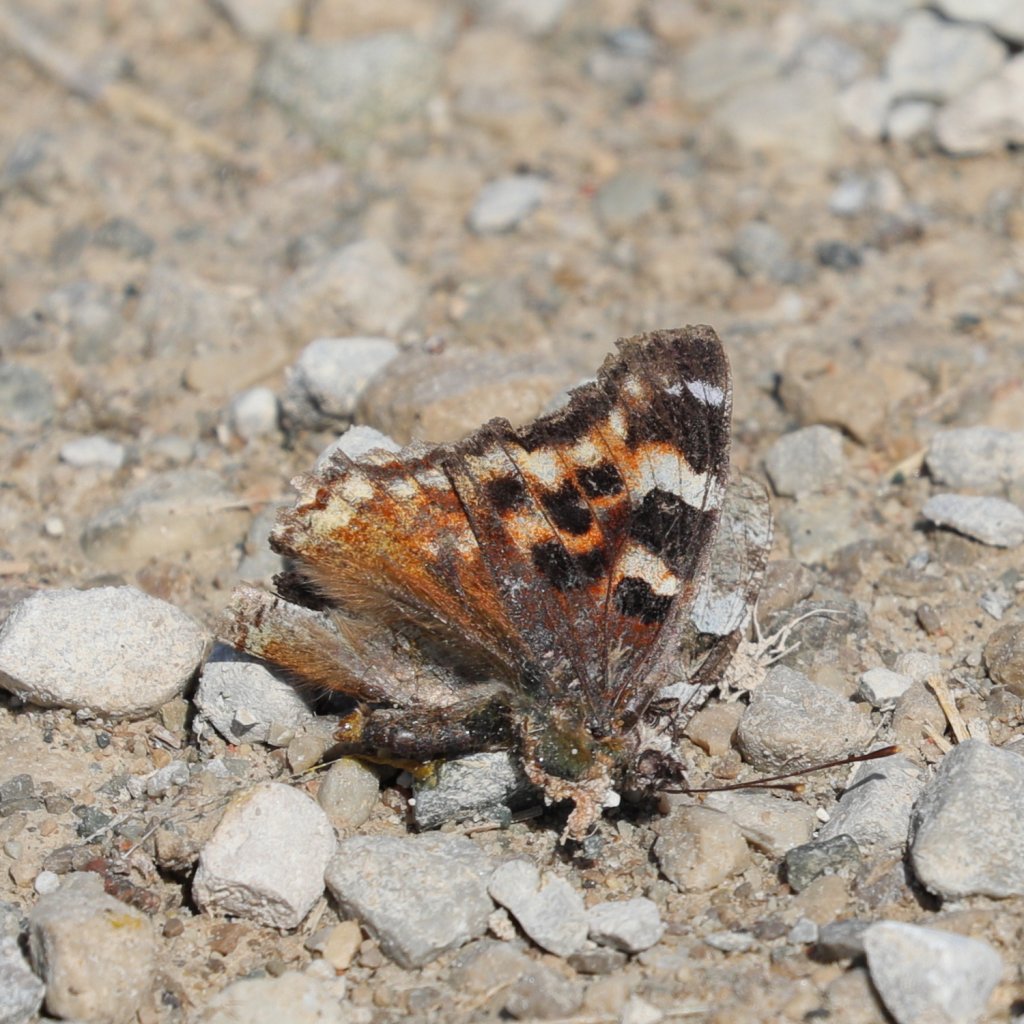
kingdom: Animalia
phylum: Arthropoda
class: Insecta
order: Lepidoptera
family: Nymphalidae
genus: Polygonia
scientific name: Polygonia vaualbum
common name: Compton Tortoiseshell
